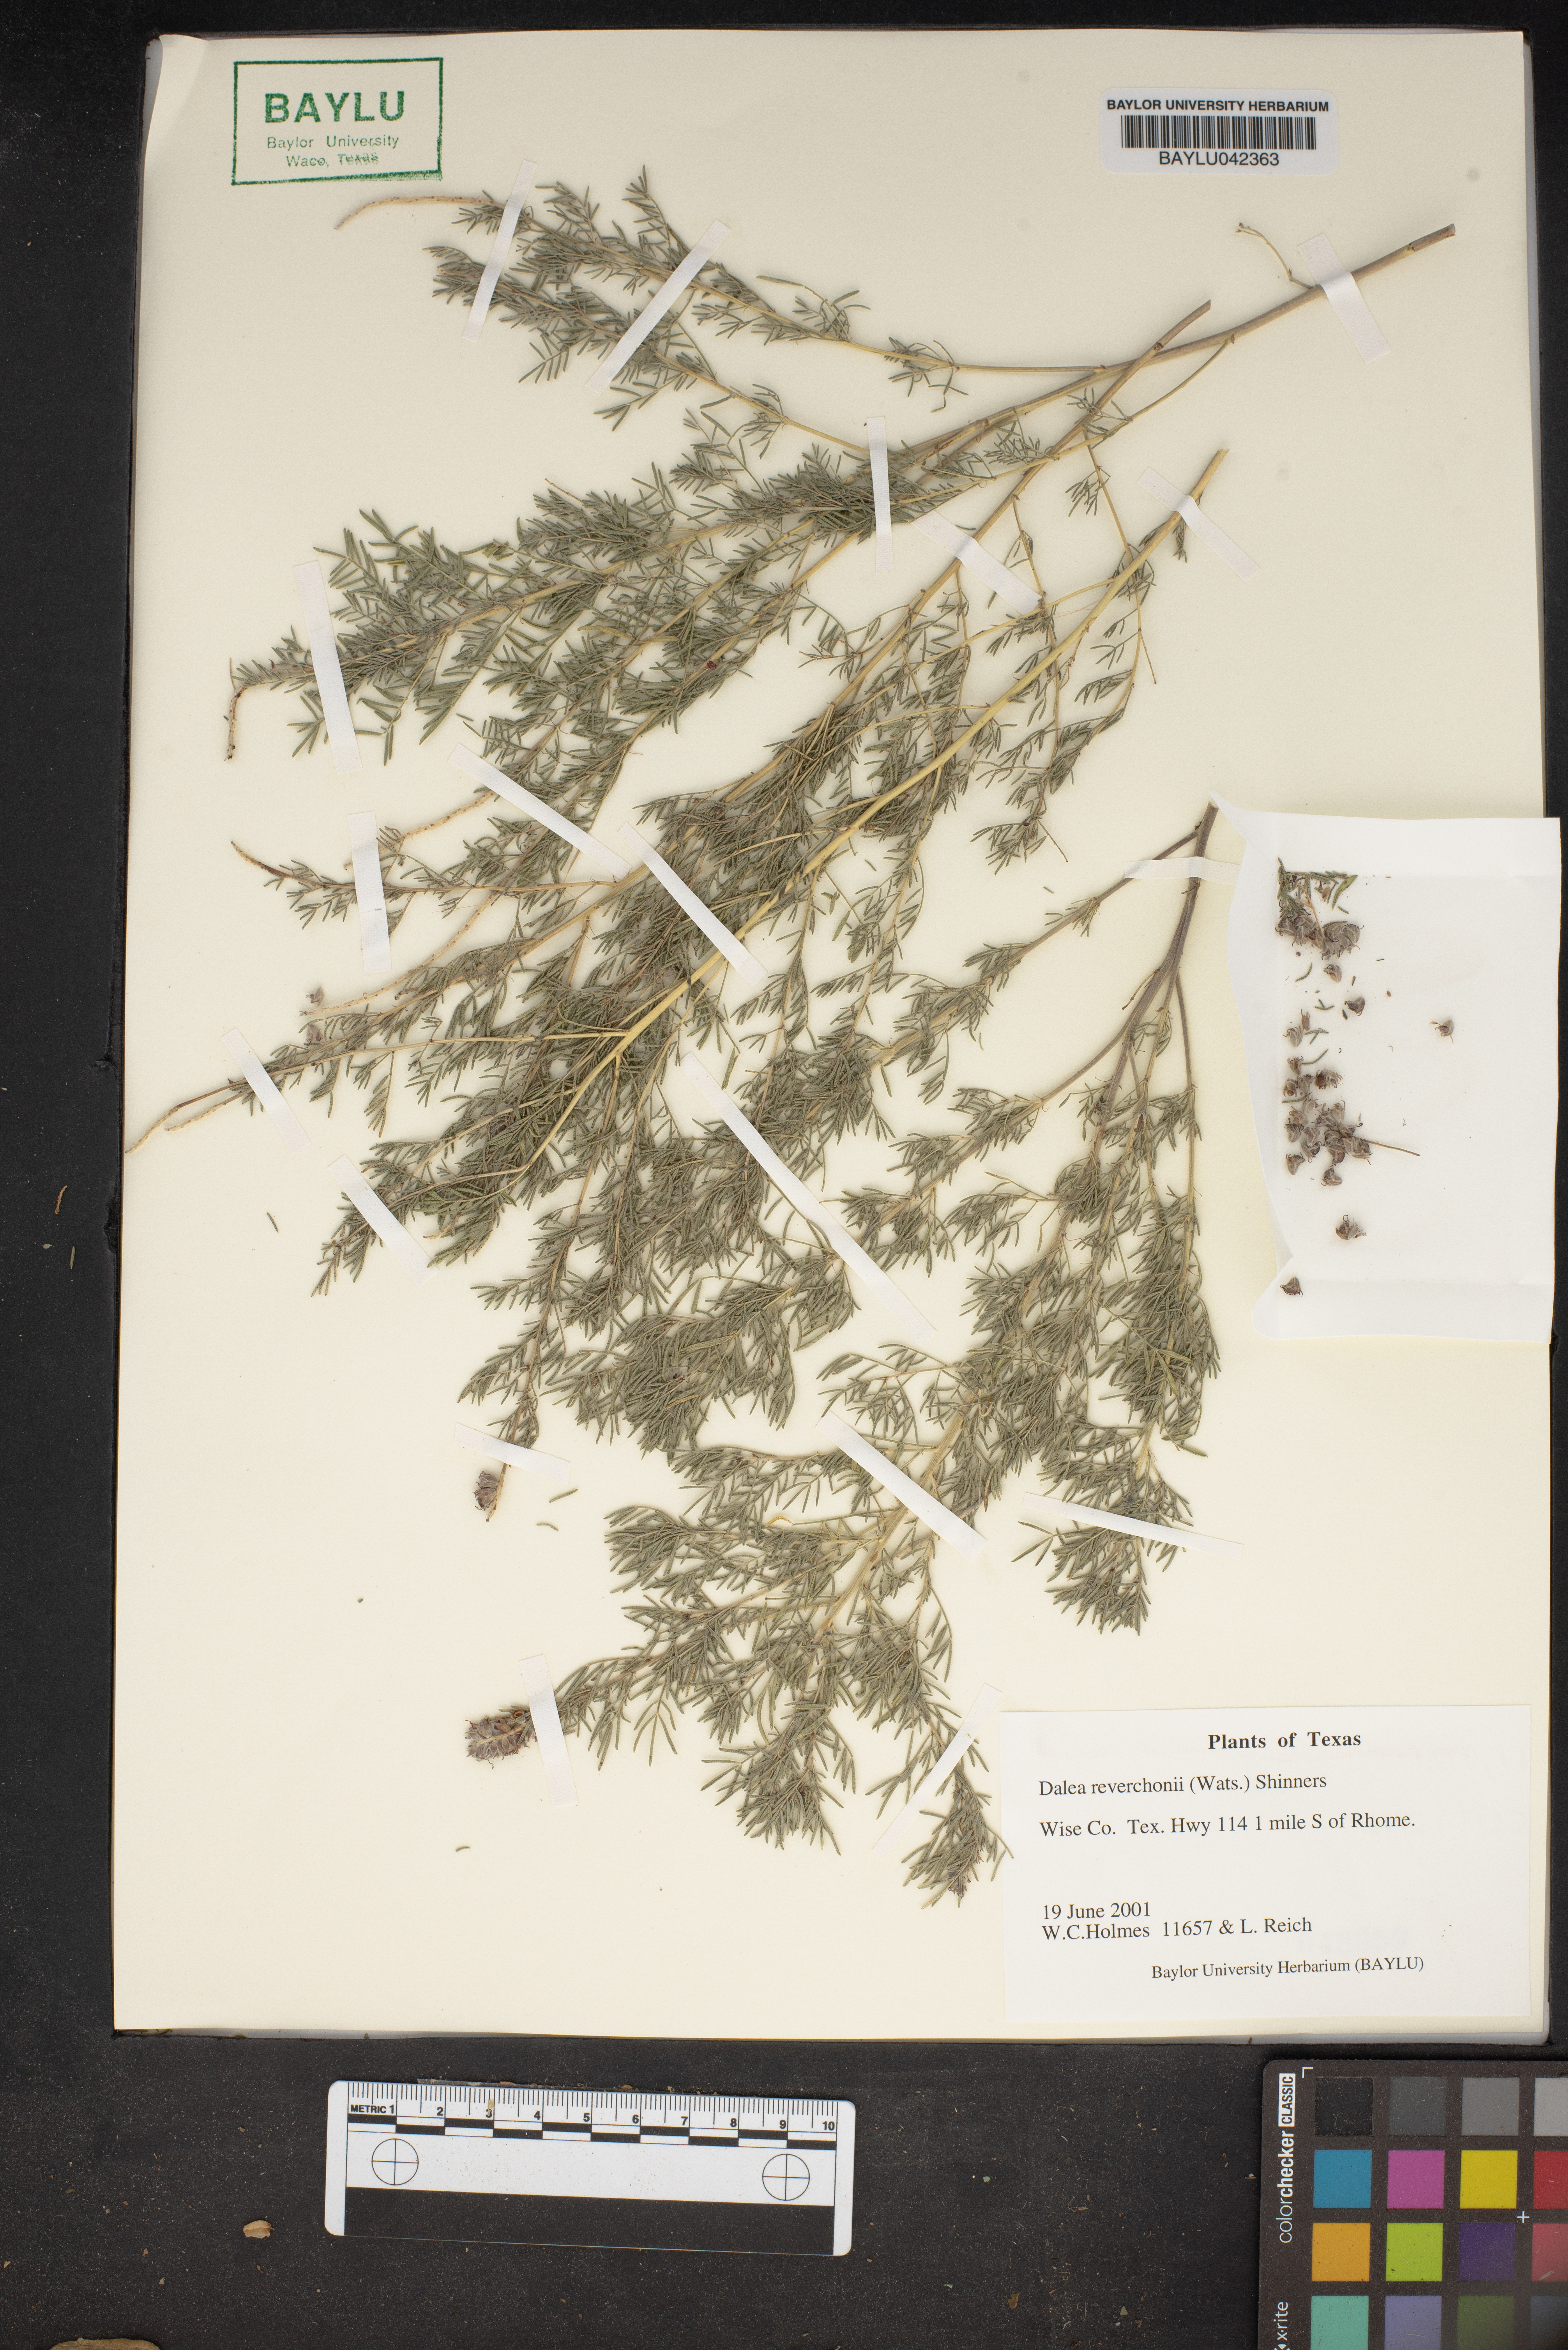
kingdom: Plantae
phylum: Tracheophyta
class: Magnoliopsida
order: Fabales
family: Fabaceae
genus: Dalea
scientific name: Dalea reverchonii
